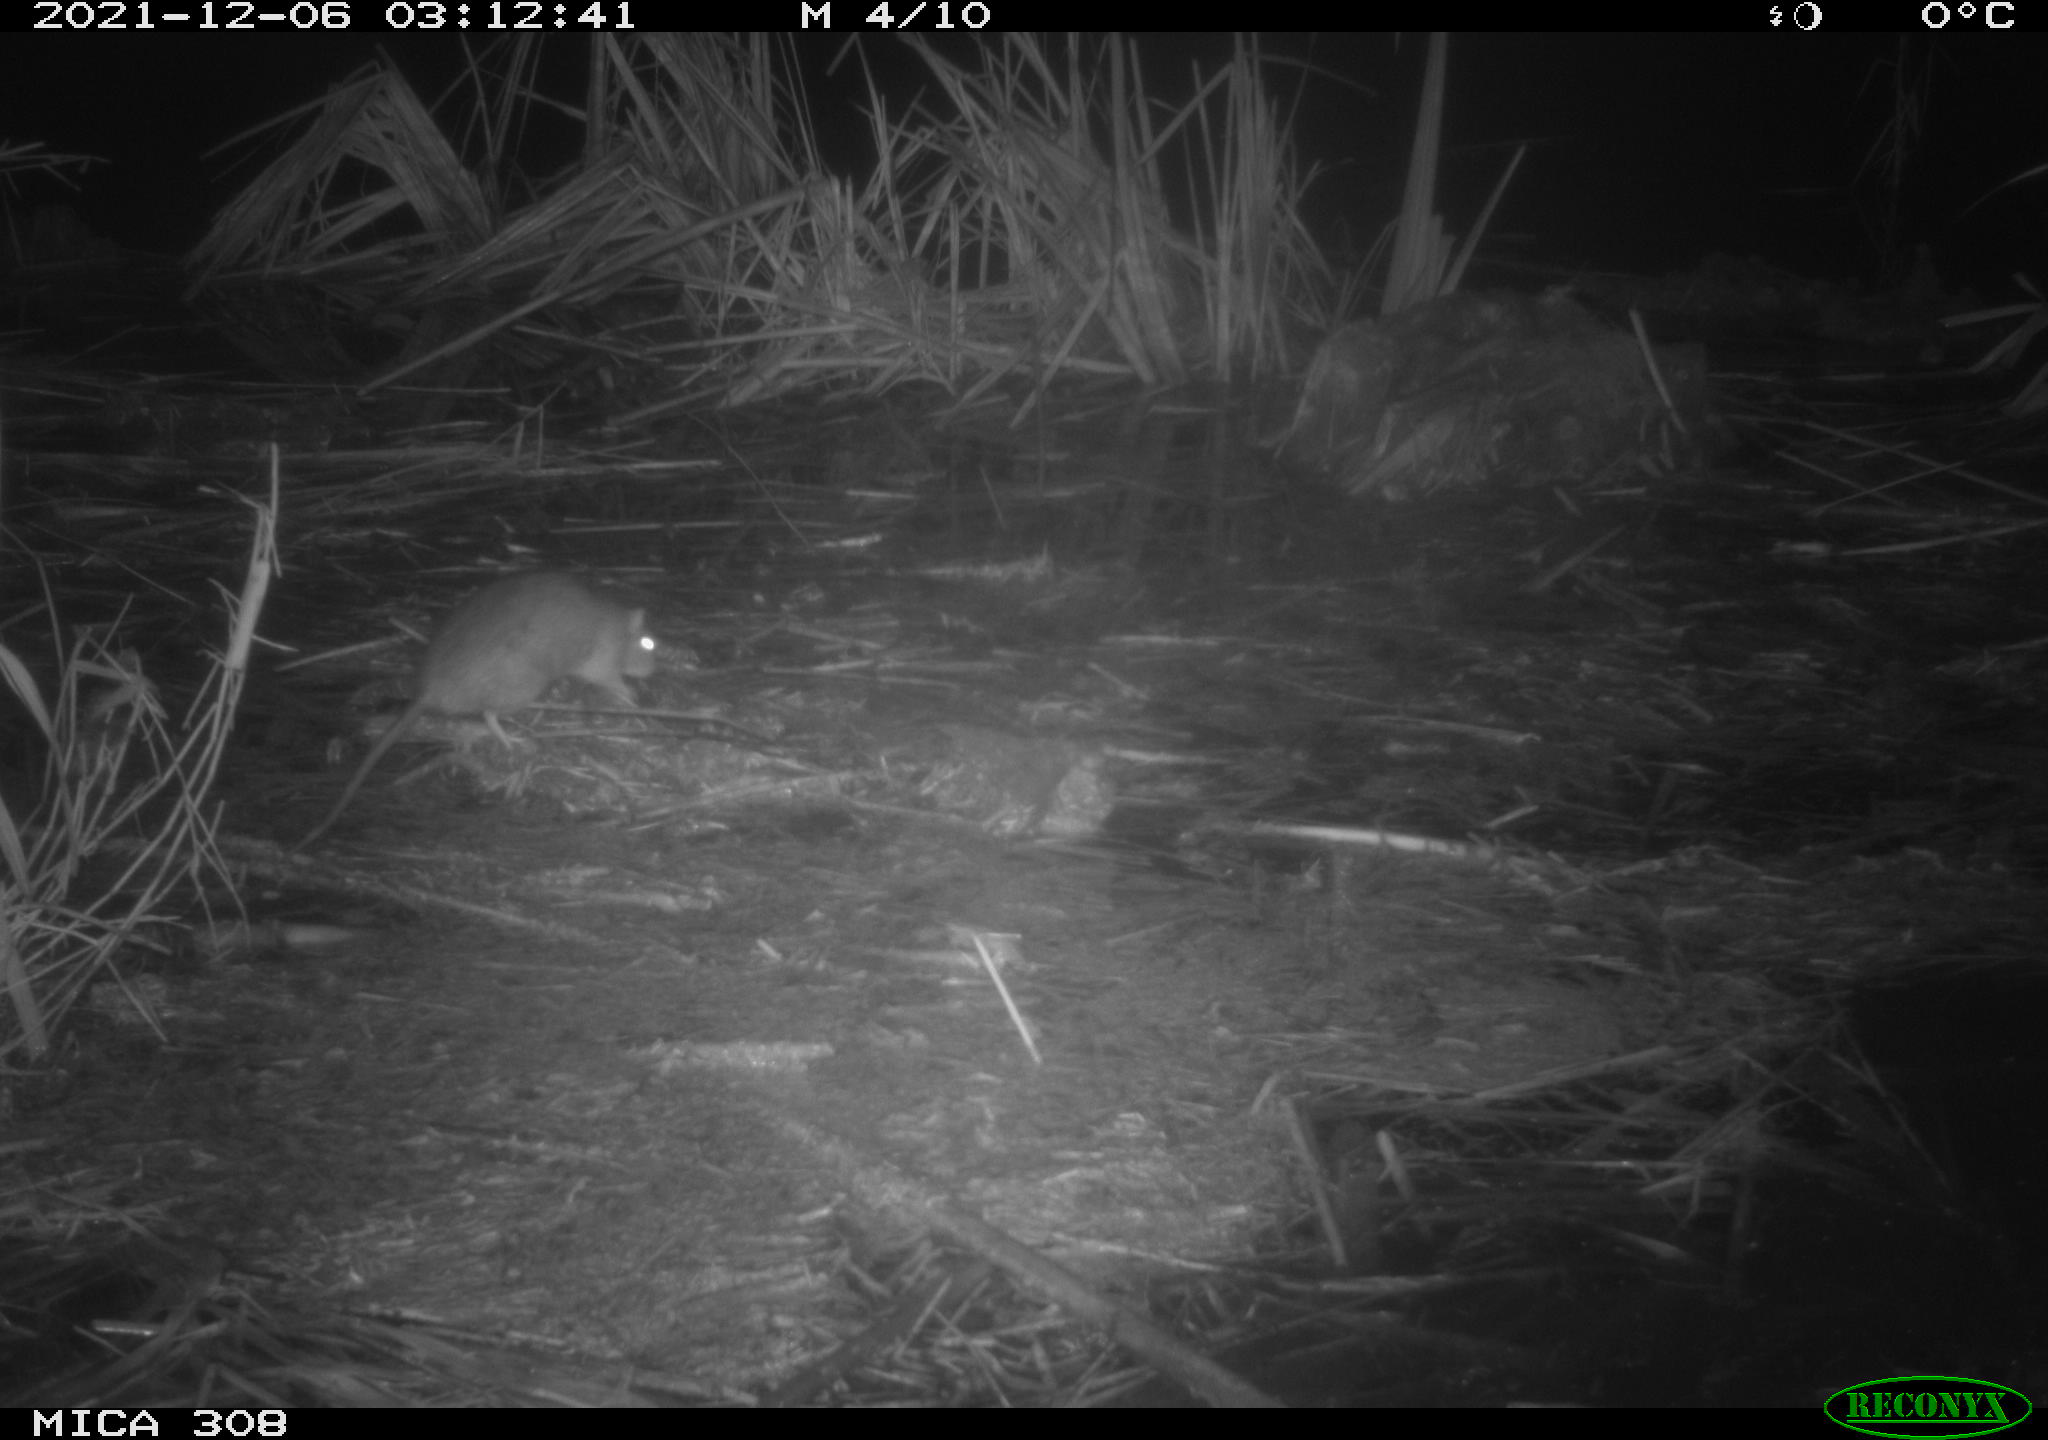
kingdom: Animalia
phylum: Chordata
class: Mammalia
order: Rodentia
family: Muridae
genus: Rattus
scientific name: Rattus norvegicus
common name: Brown rat
